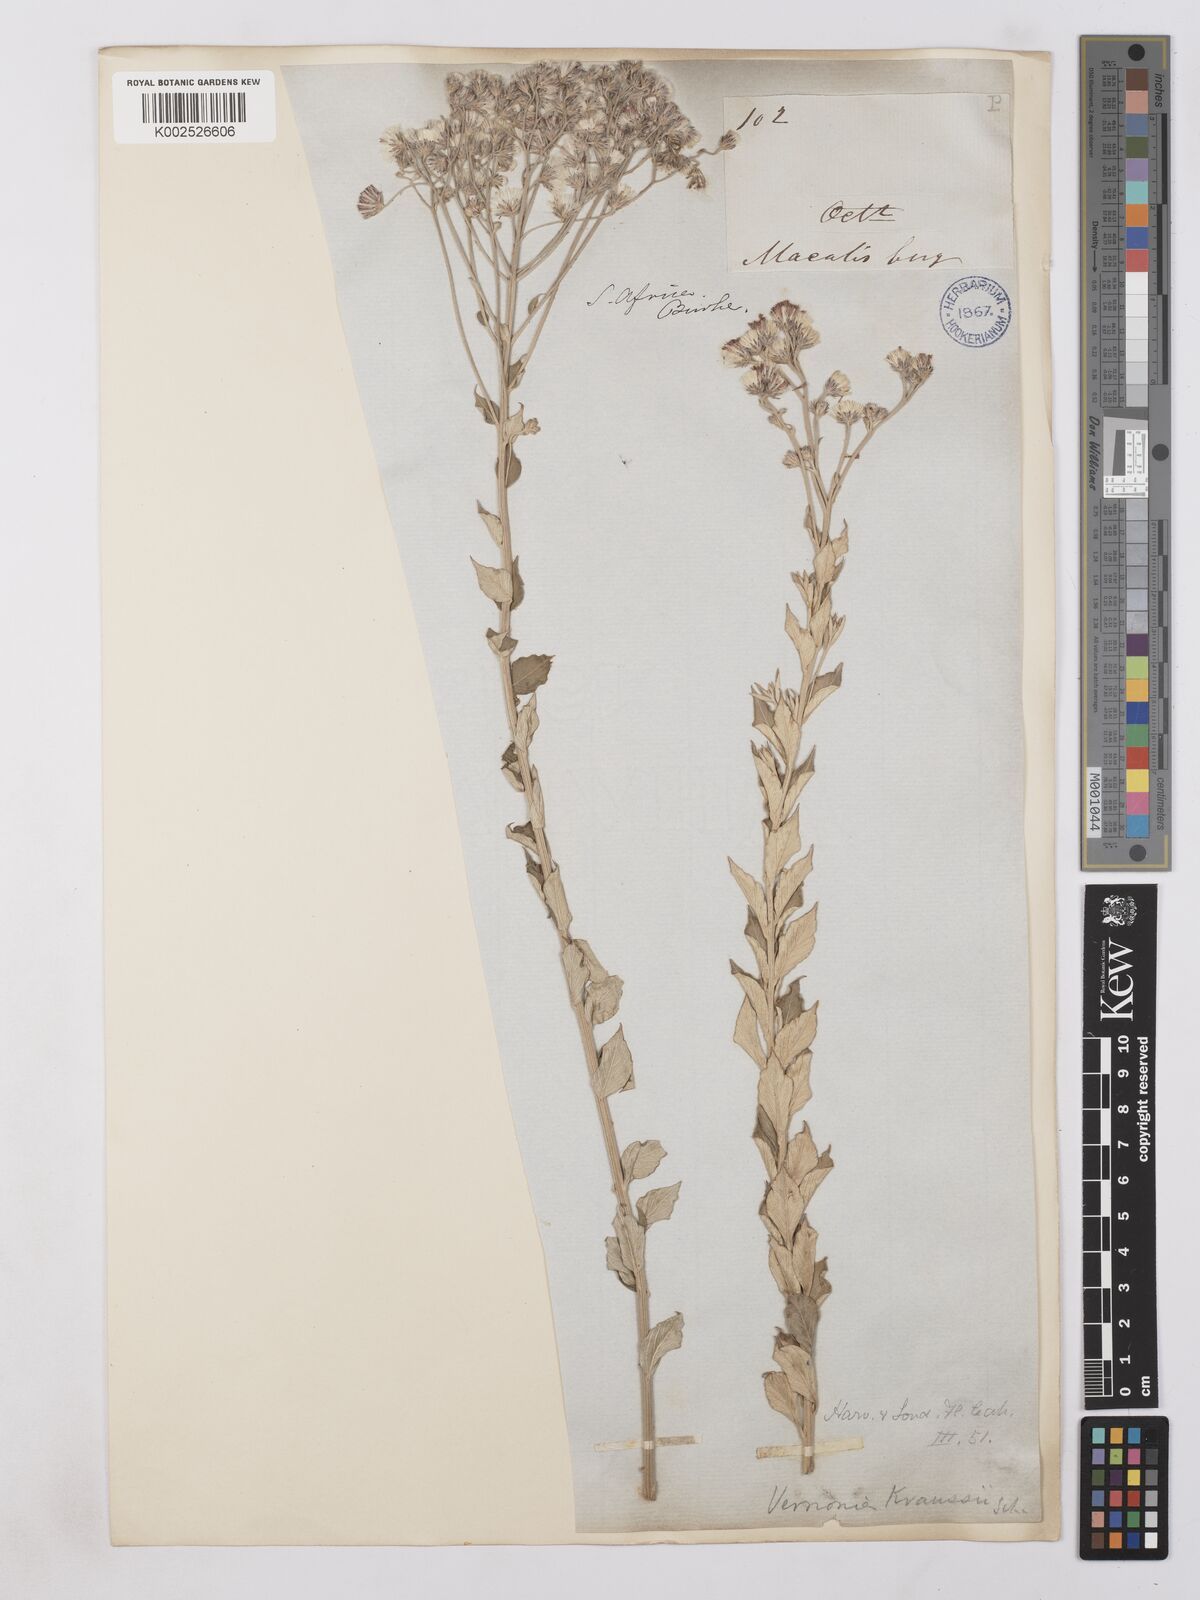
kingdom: Plantae
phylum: Tracheophyta
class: Magnoliopsida
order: Asterales
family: Asteraceae
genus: Lepidaploa
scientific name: Lepidaploa aurea
